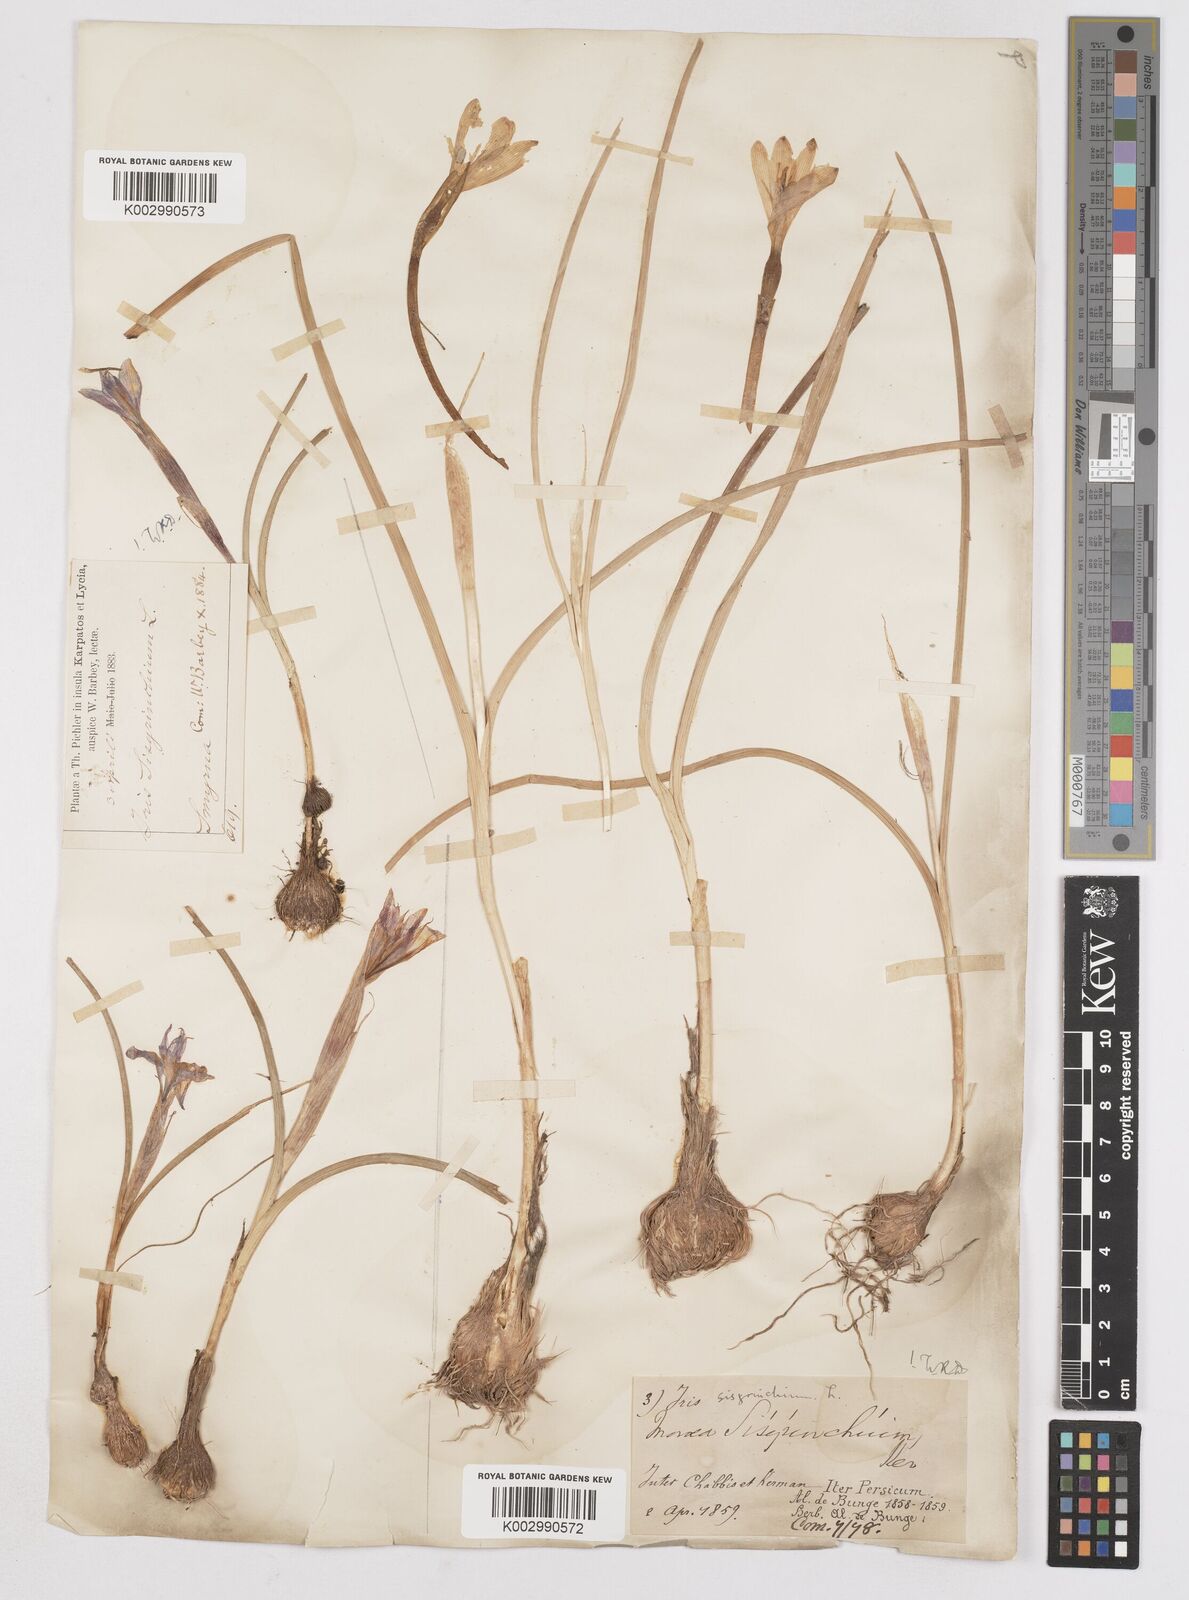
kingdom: Plantae
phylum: Tracheophyta
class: Liliopsida
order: Asparagales
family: Iridaceae
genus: Moraea
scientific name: Moraea sisyrinchium
